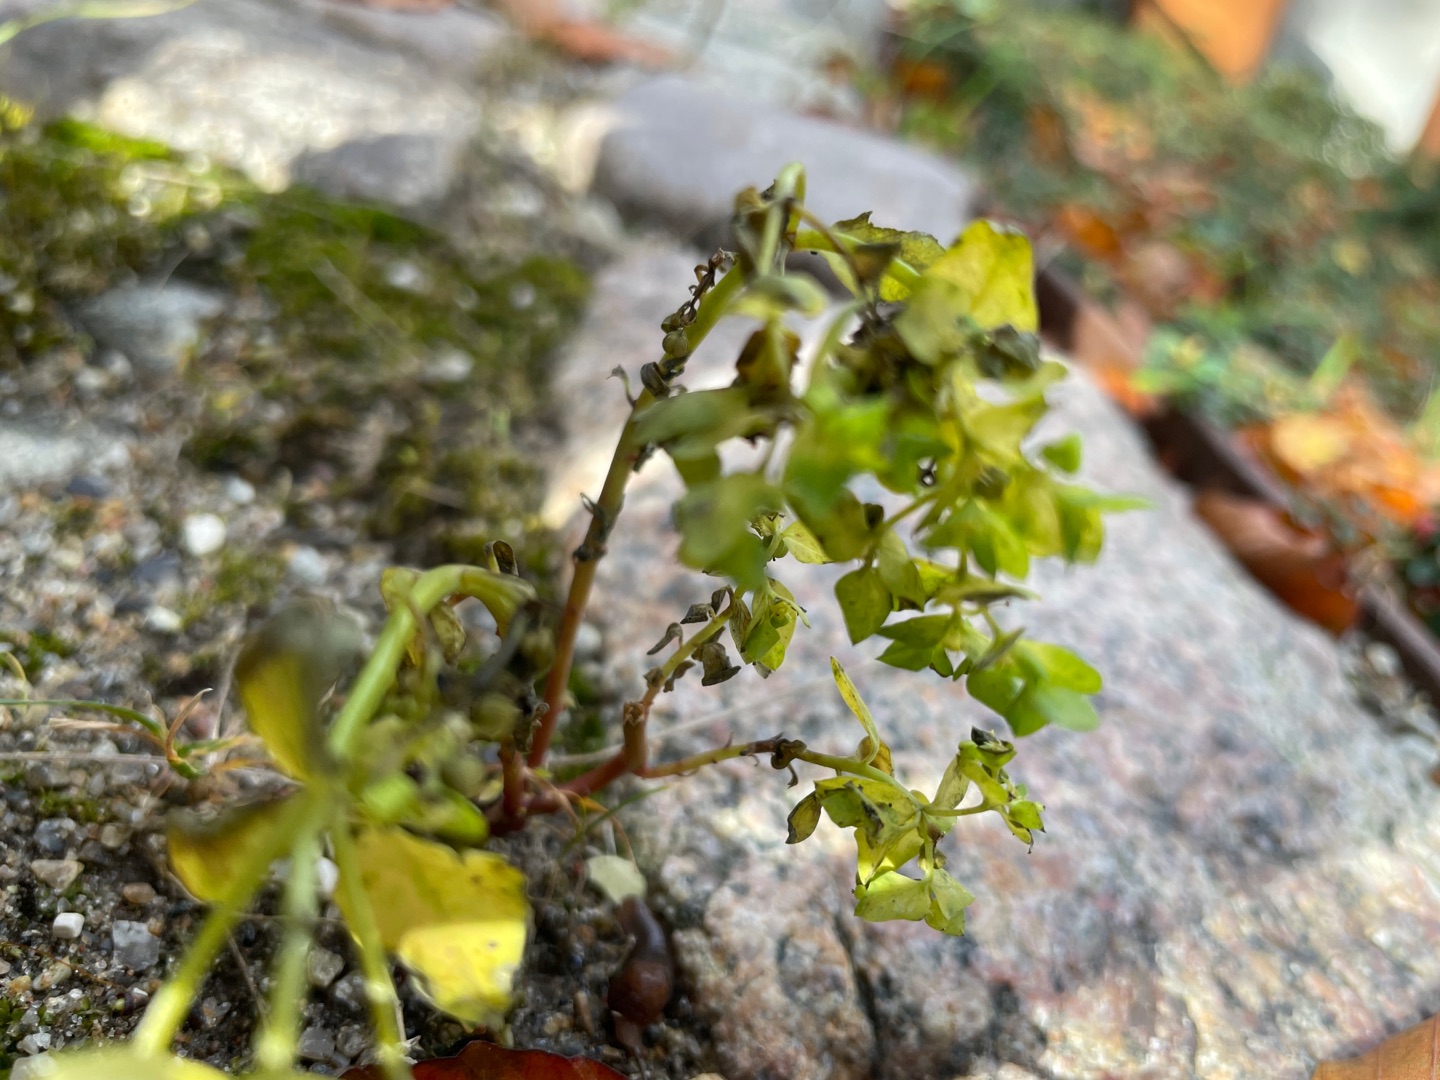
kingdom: Plantae
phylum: Tracheophyta
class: Magnoliopsida
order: Malpighiales
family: Euphorbiaceae
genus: Euphorbia
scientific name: Euphorbia peplus
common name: Gaffel-vortemælk
